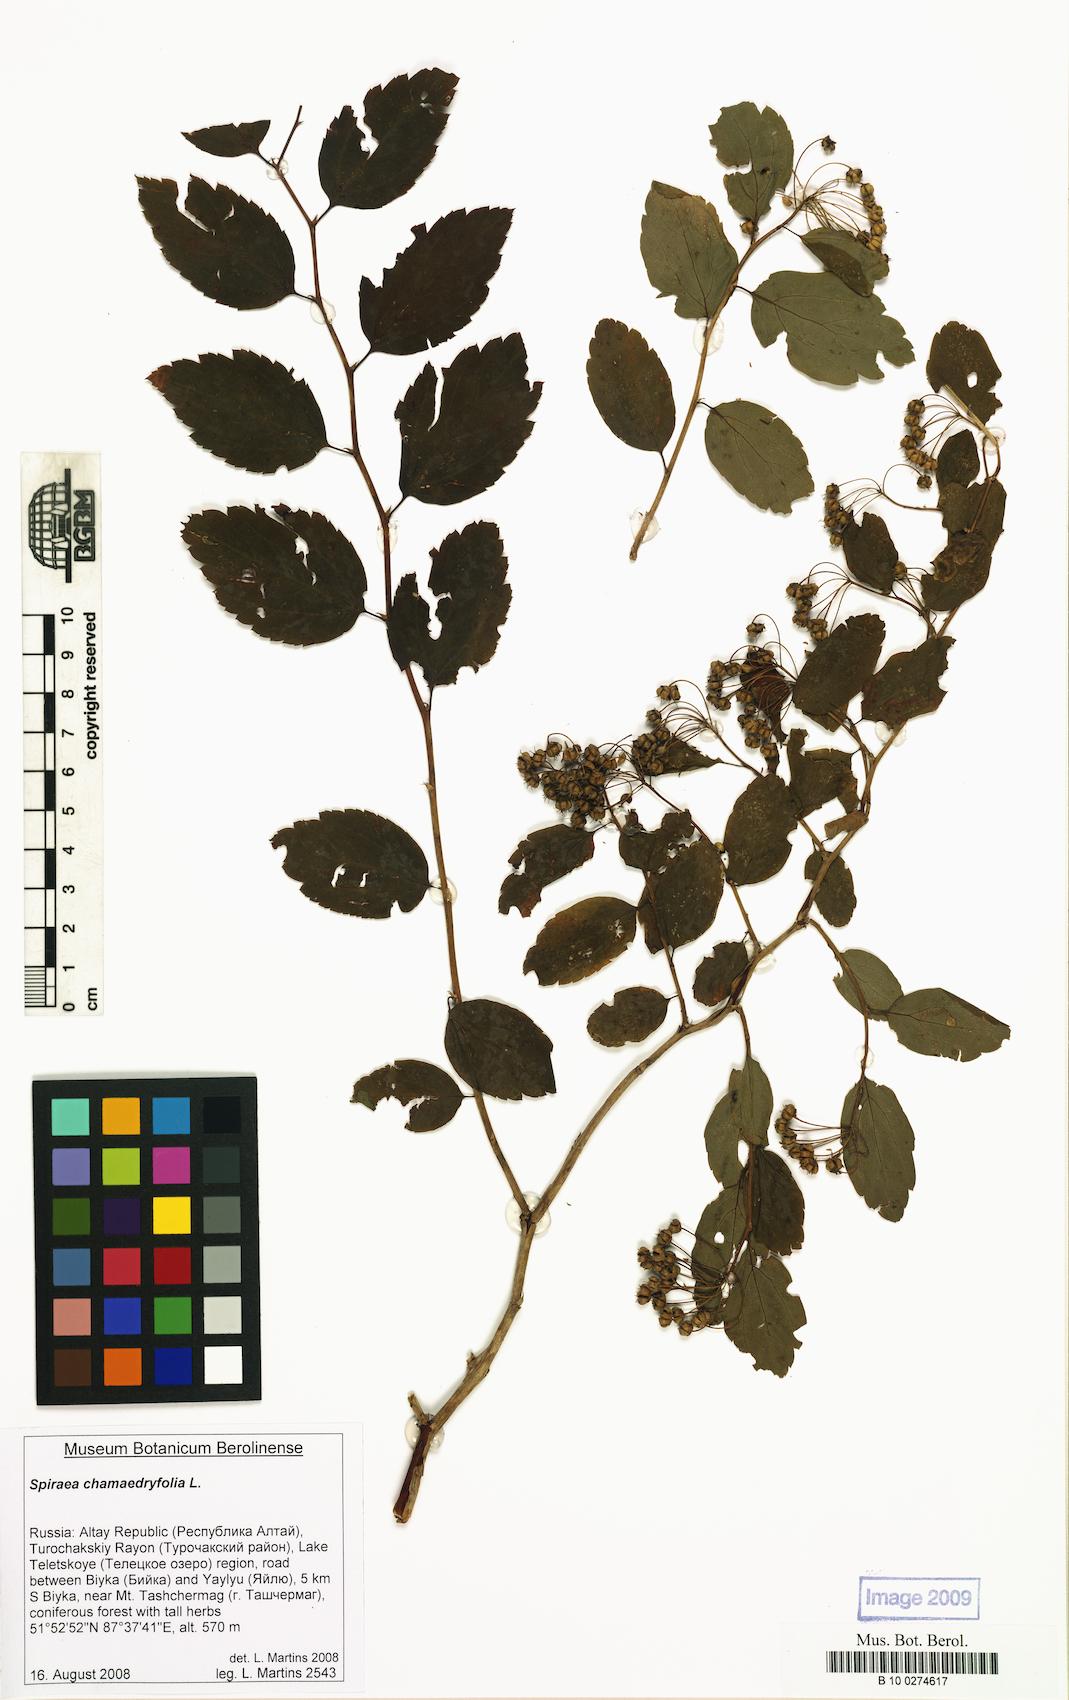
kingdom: Plantae
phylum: Tracheophyta
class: Magnoliopsida
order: Rosales
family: Rosaceae
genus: Spiraea
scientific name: Spiraea chamaedryfolia
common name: Elm-leaved spiraea
